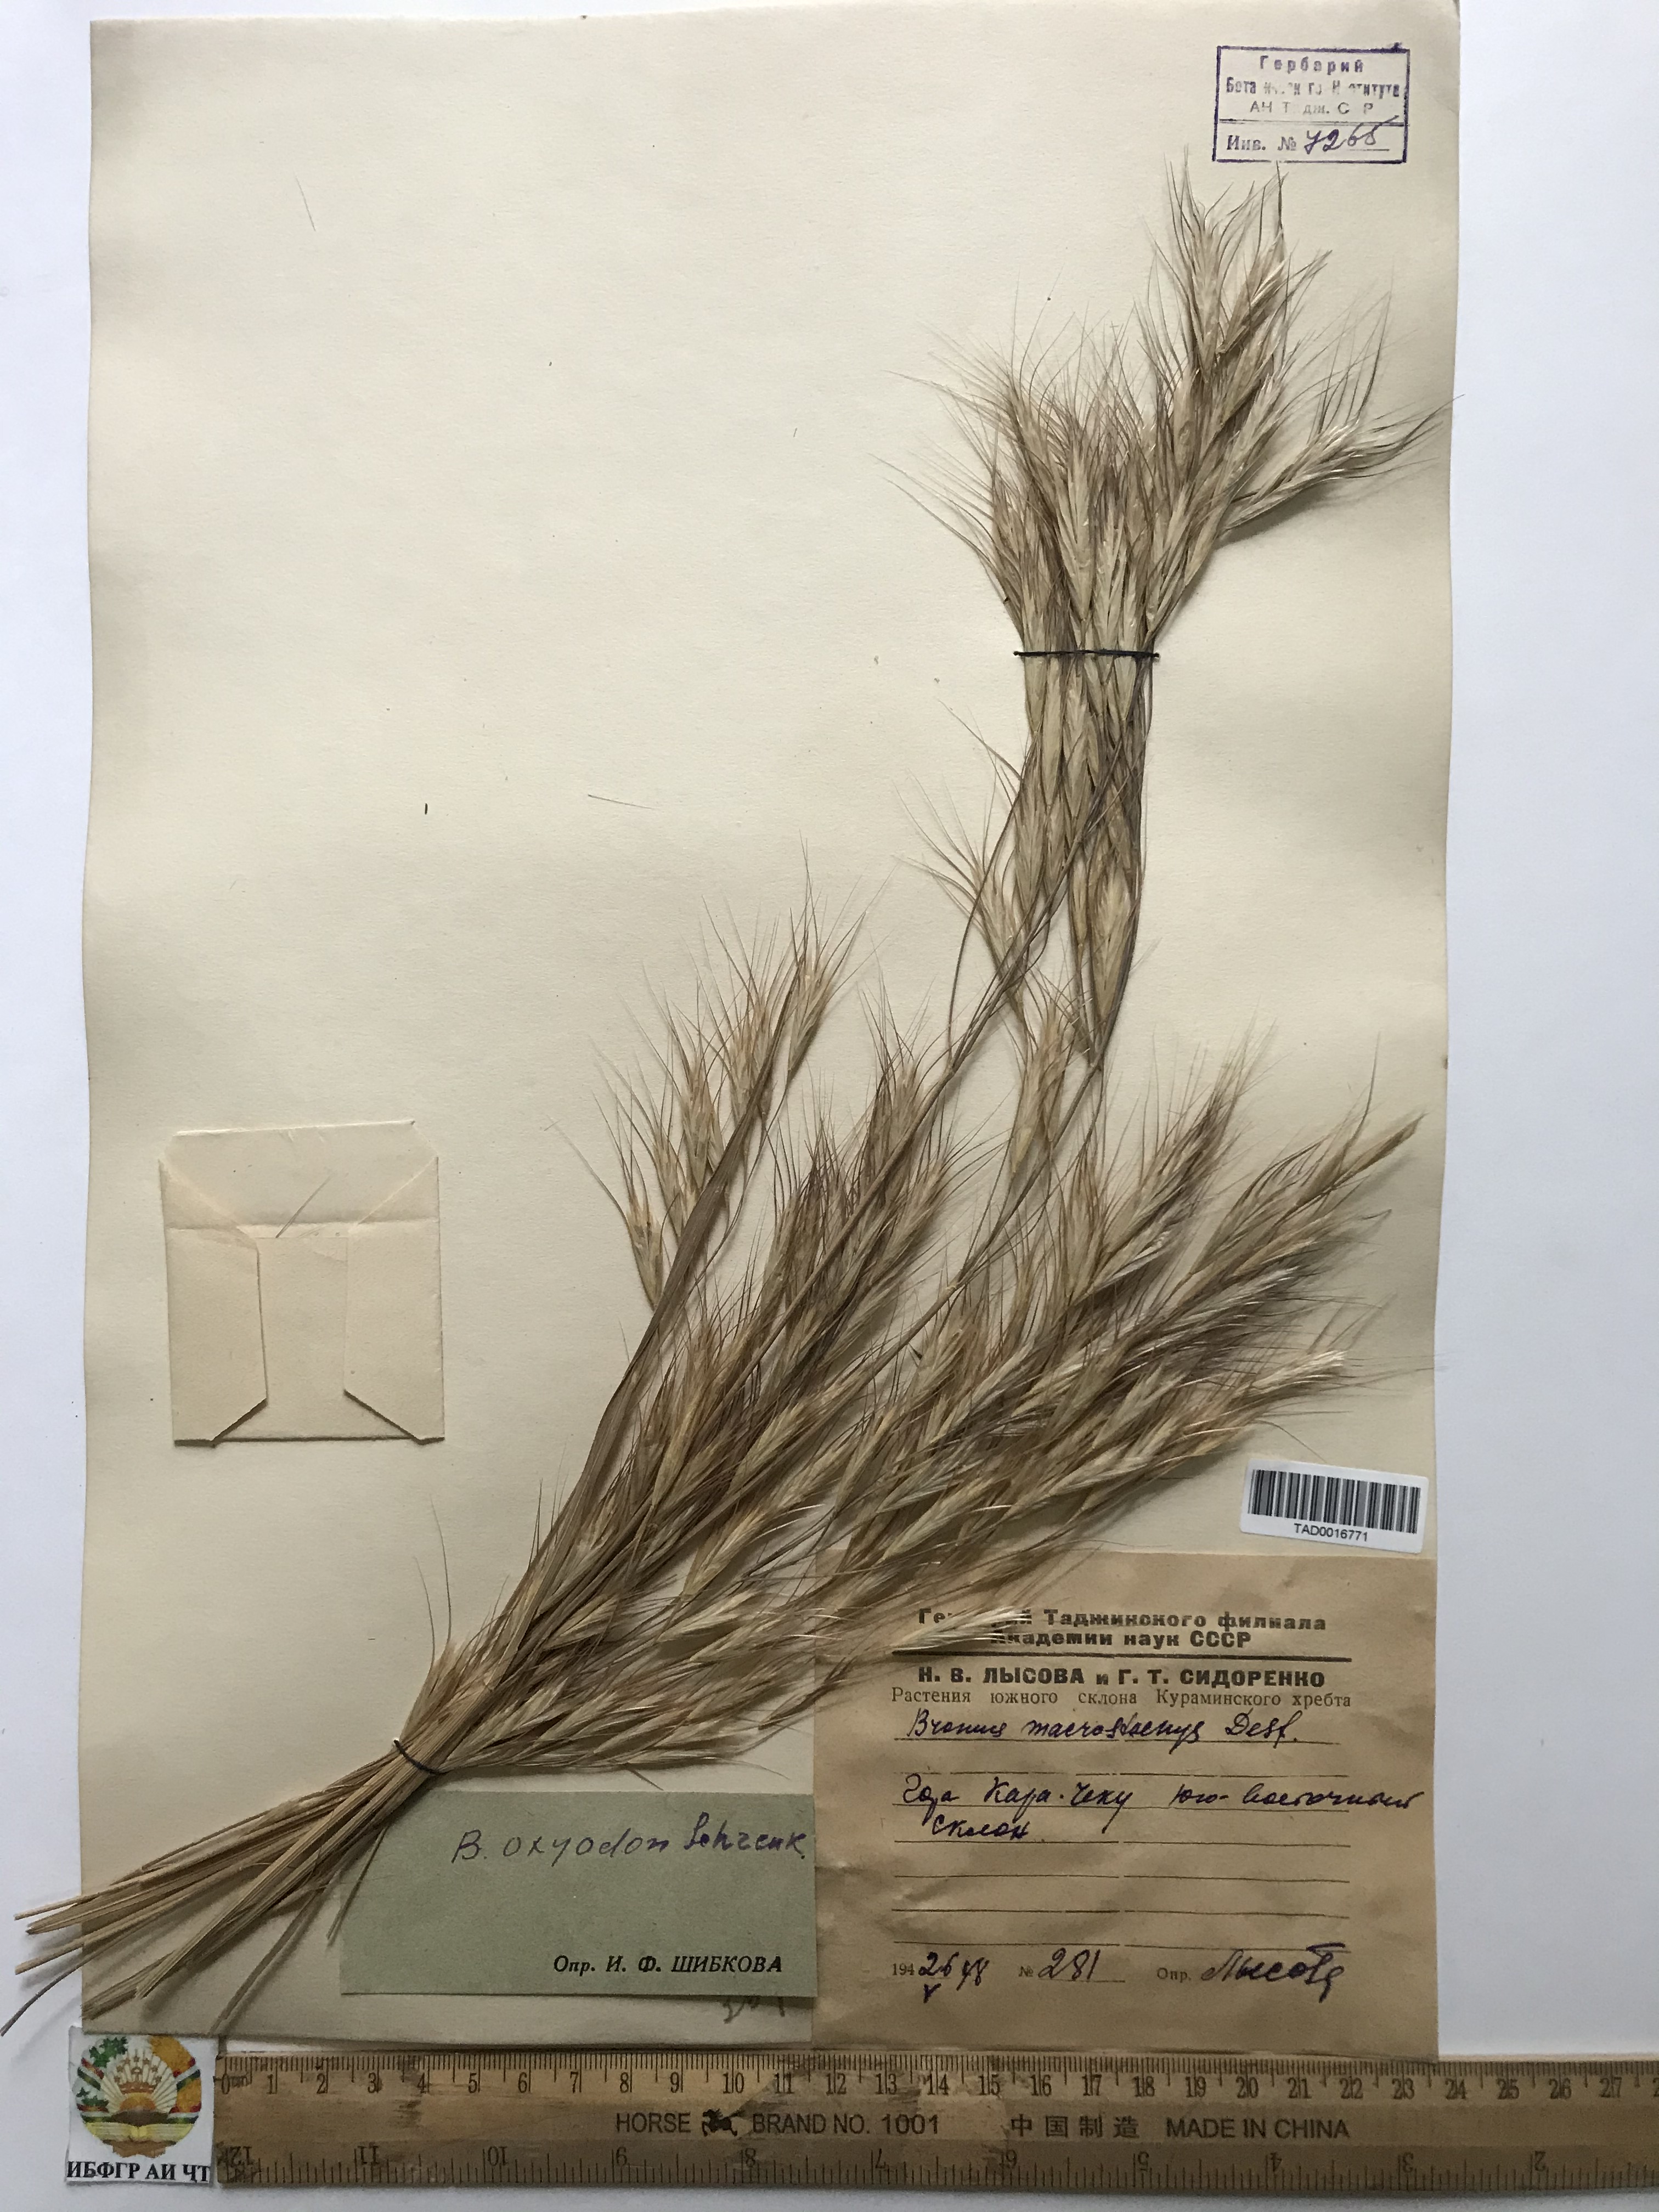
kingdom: Plantae
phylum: Tracheophyta
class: Liliopsida
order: Poales
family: Poaceae
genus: Bromus
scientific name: Bromus oxyodon
